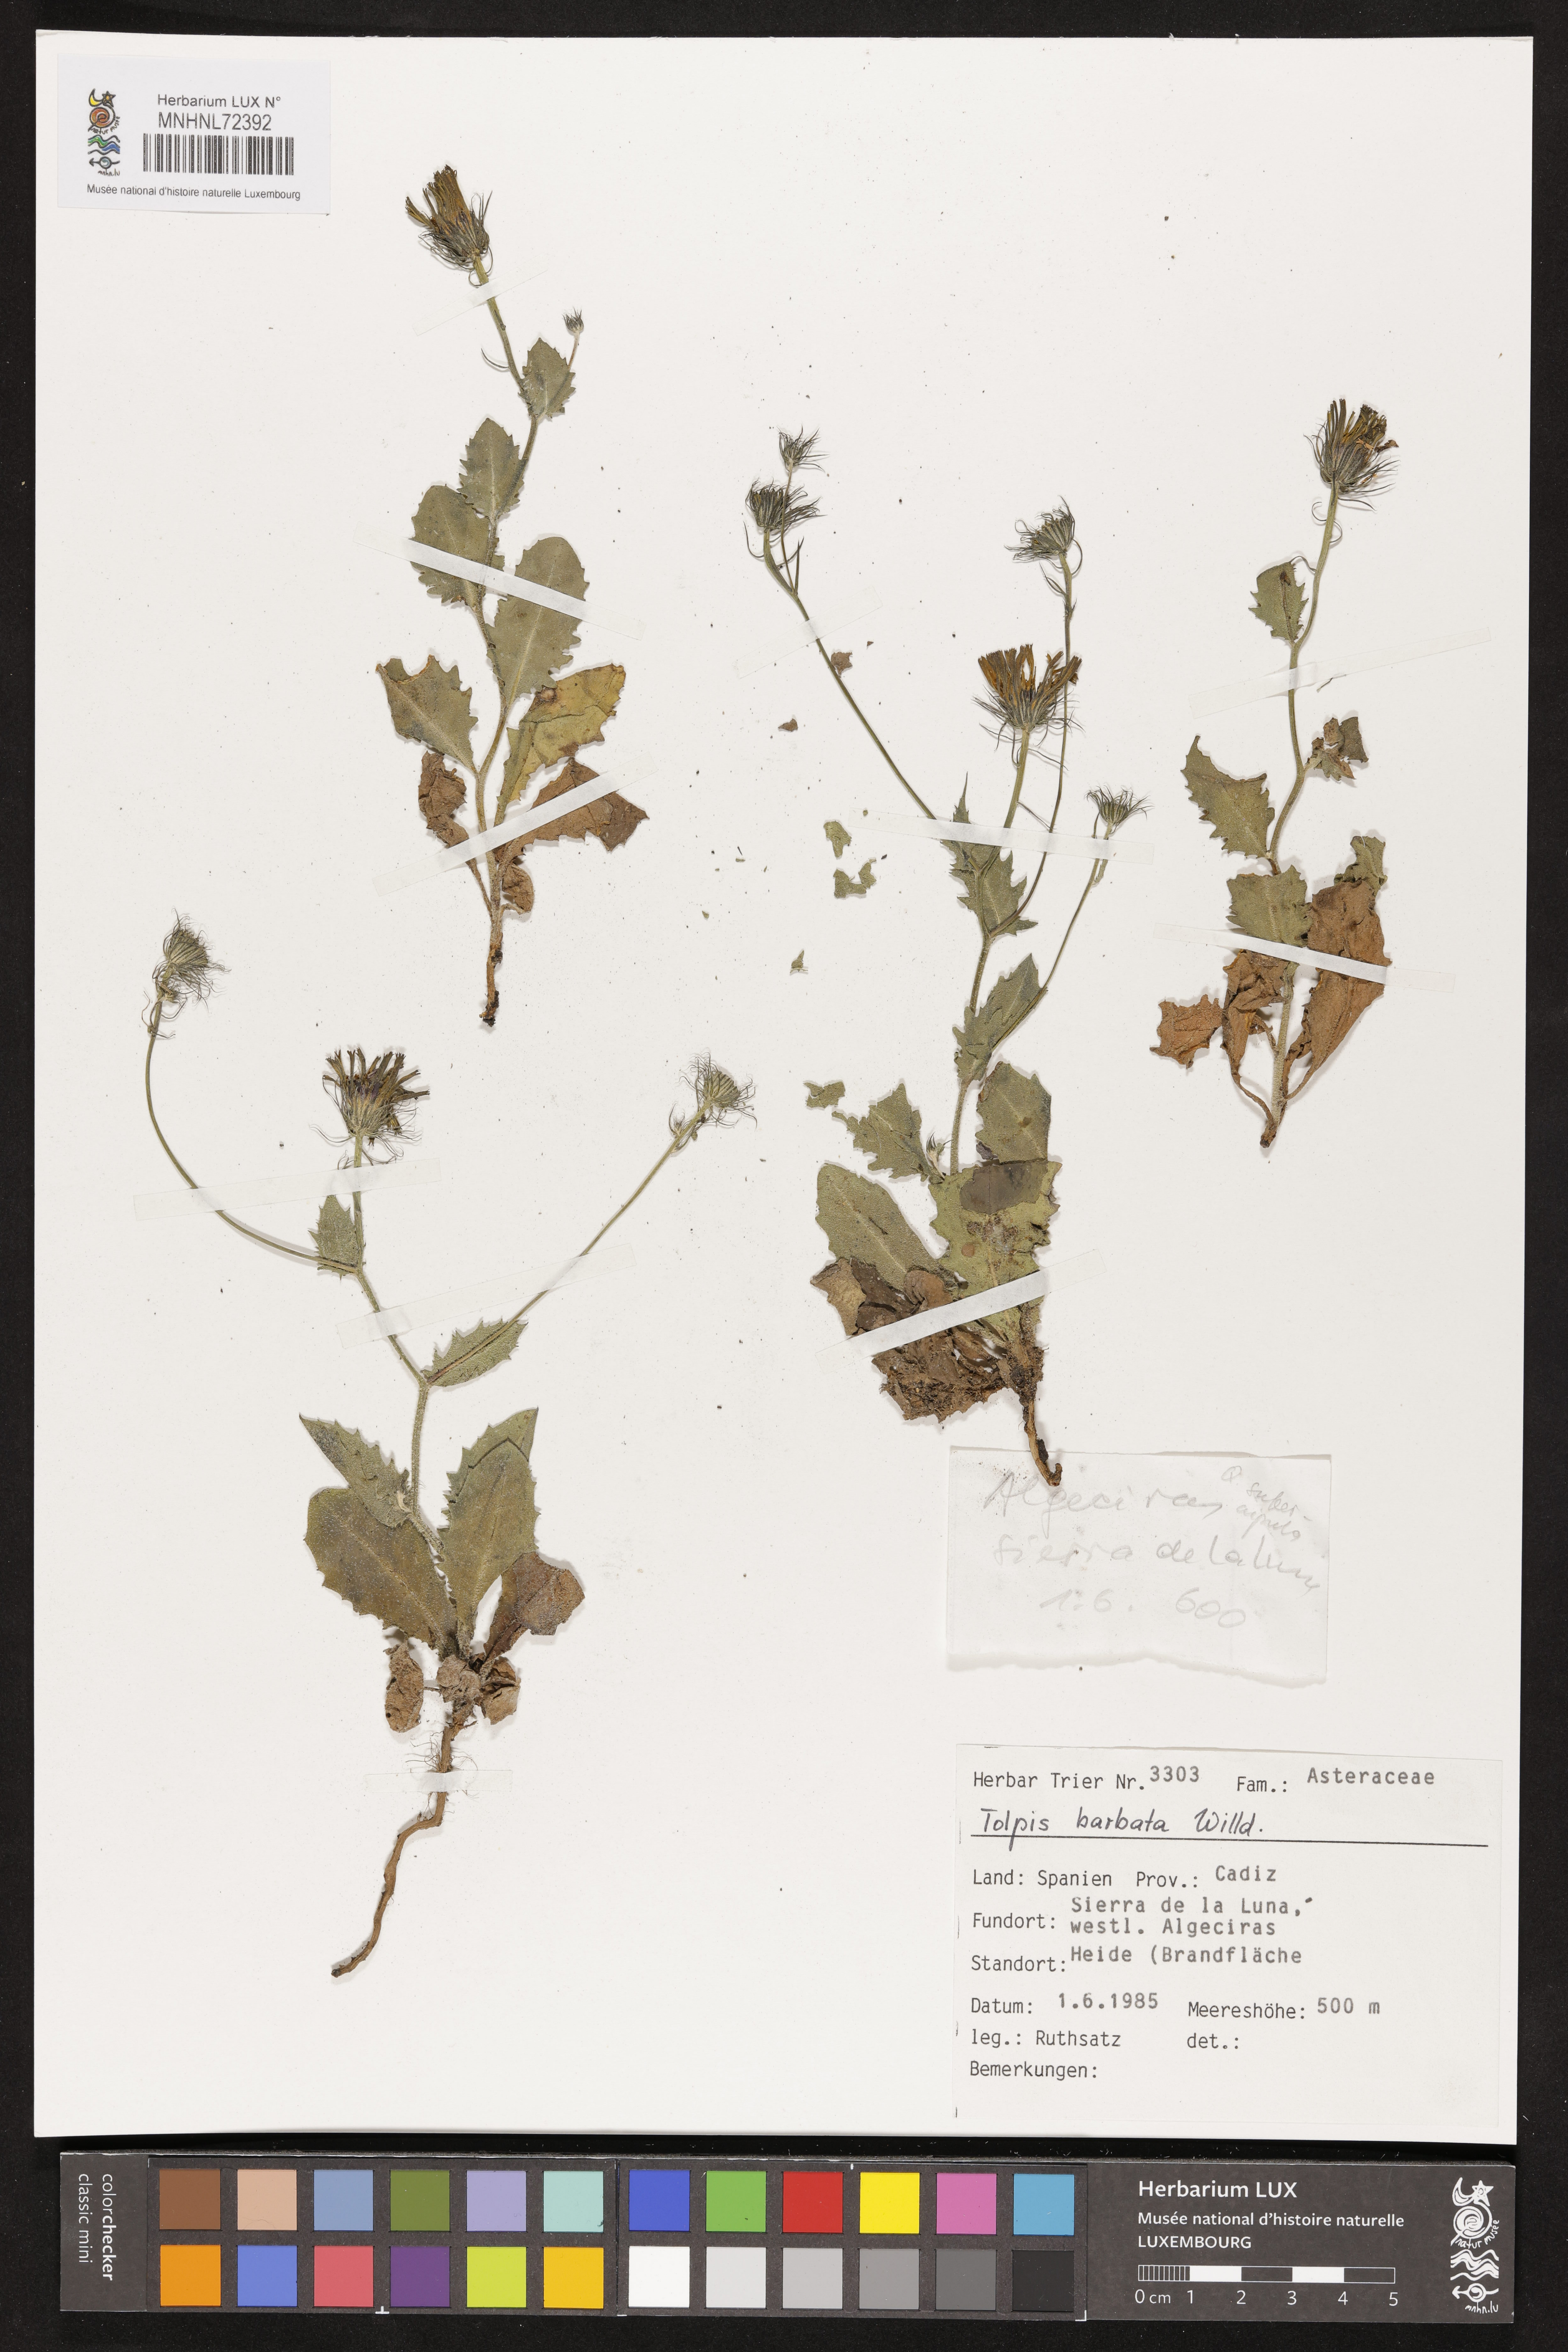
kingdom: Plantae
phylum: Tracheophyta
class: Magnoliopsida
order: Asterales
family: Asteraceae
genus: Tolpis
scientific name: Tolpis barbata
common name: Yellow hawkweed
